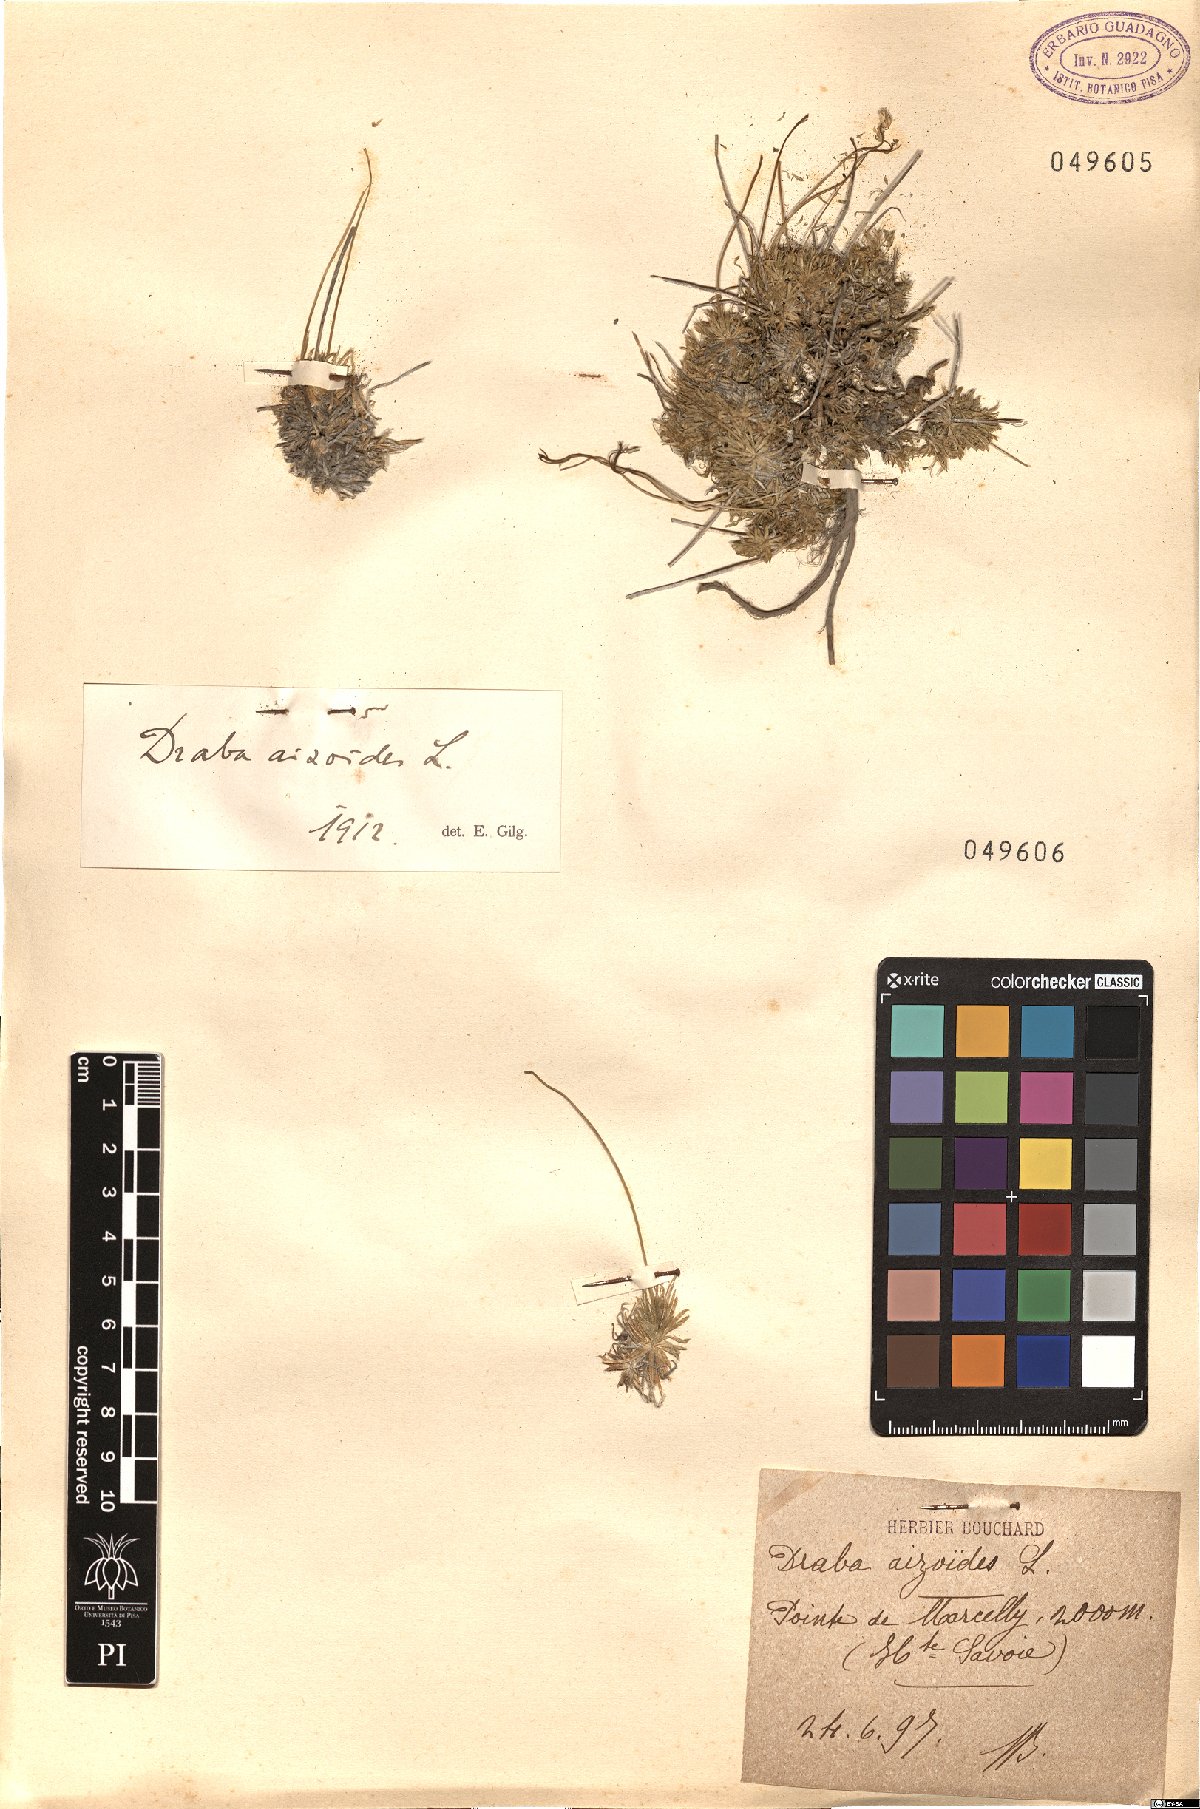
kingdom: Plantae
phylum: Tracheophyta
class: Magnoliopsida
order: Brassicales
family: Brassicaceae
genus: Draba
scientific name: Draba aizoides
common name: Yellow whitlowgrass
